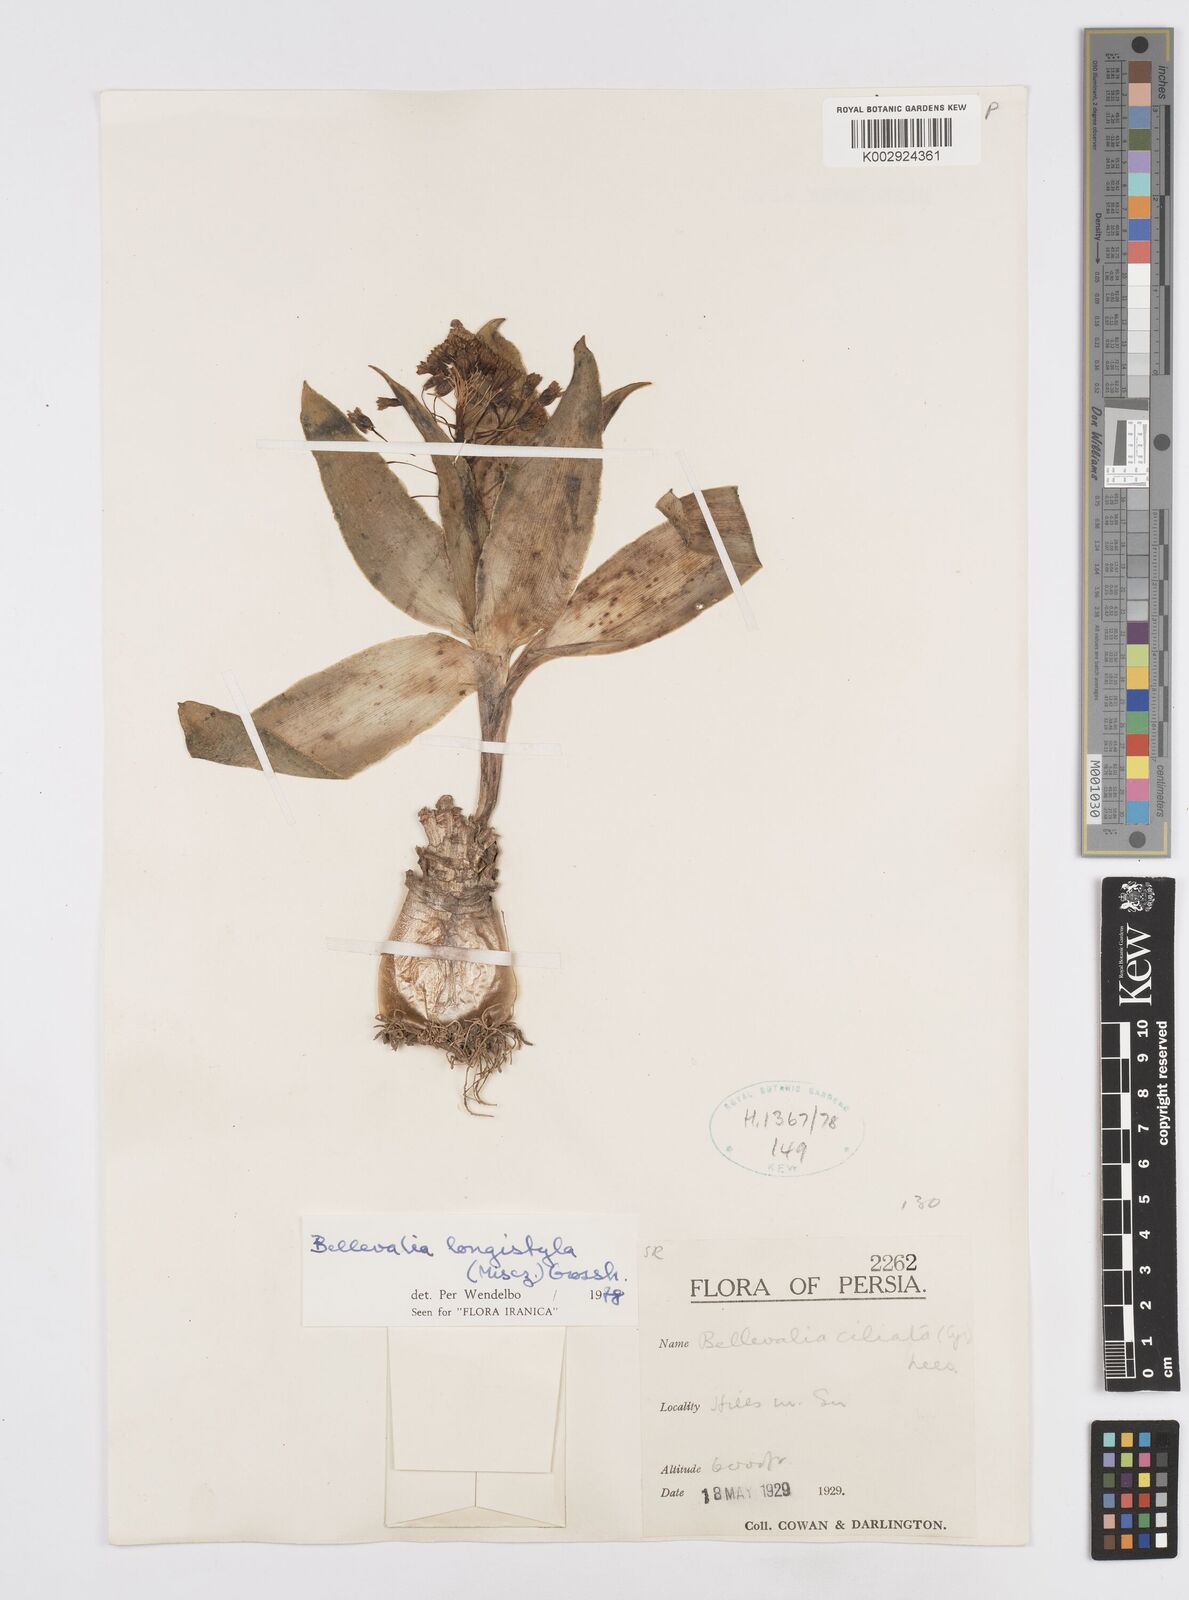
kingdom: Plantae
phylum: Tracheophyta
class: Liliopsida
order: Asparagales
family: Asparagaceae
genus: Bellevalia
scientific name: Bellevalia longistyla
